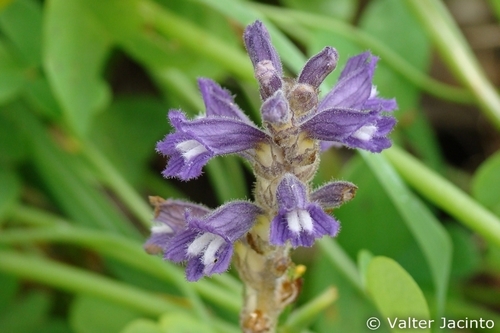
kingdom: Plantae
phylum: Tracheophyta
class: Magnoliopsida
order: Lamiales
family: Orobanchaceae
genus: Phelipanche
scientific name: Phelipanche
